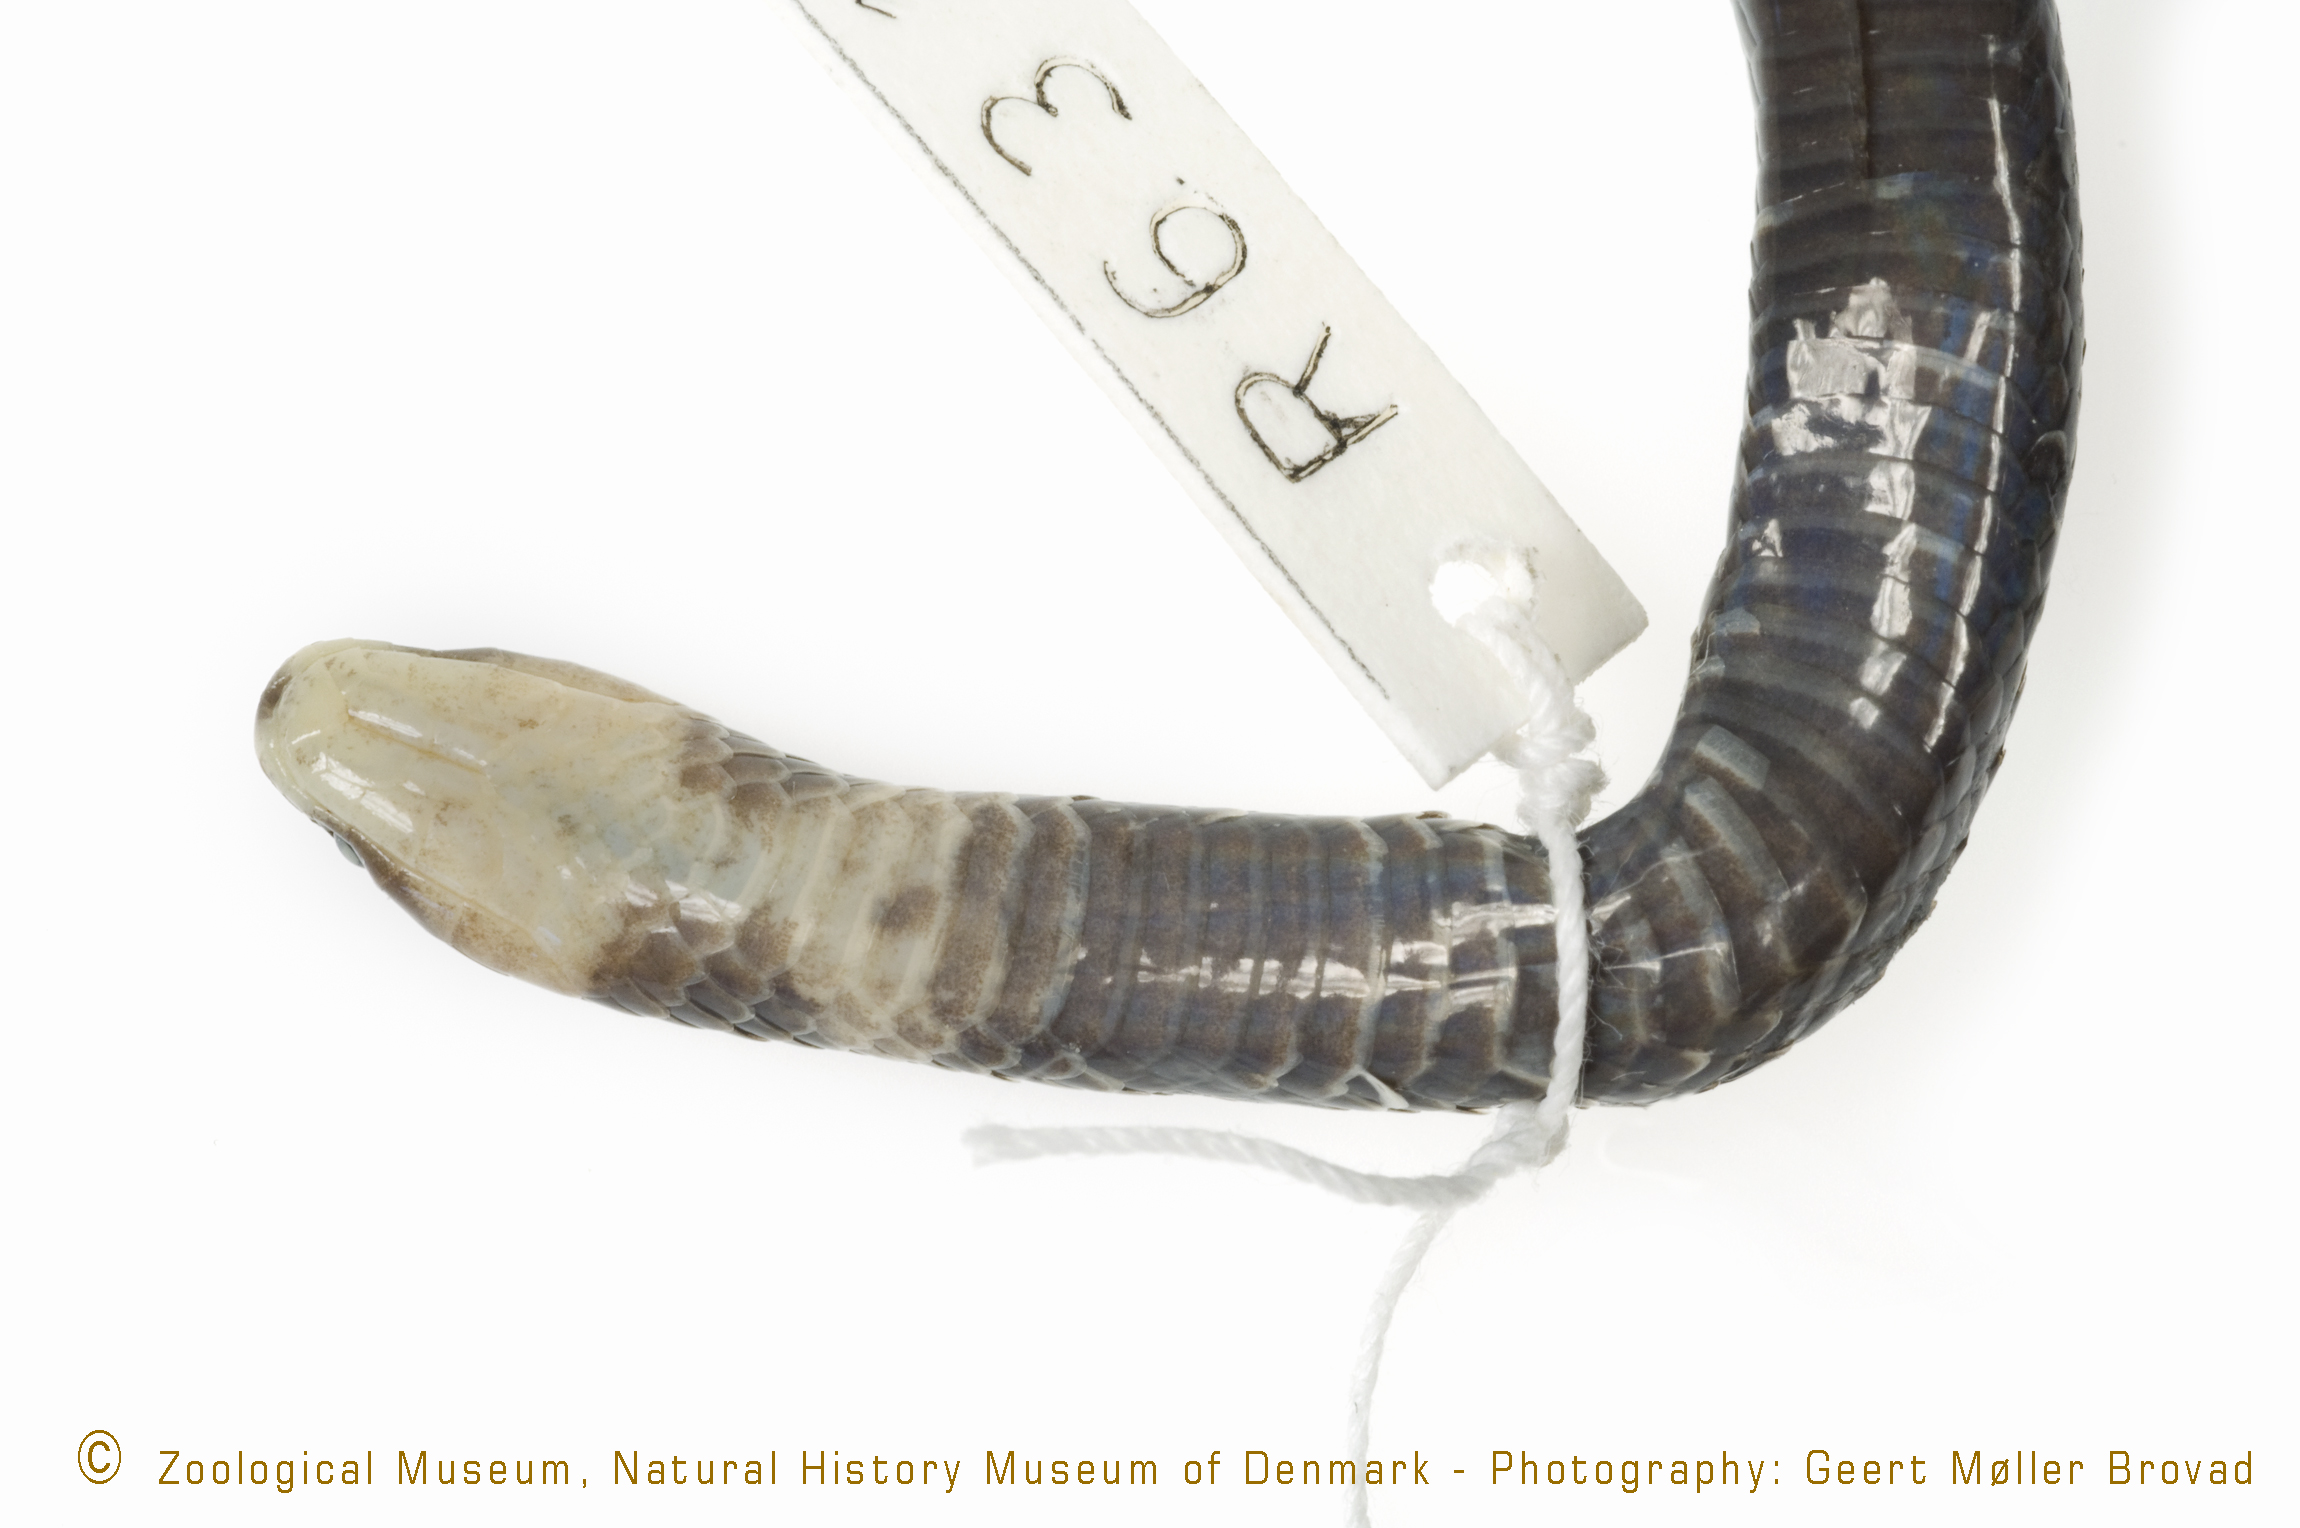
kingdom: Animalia
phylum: Chordata
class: Squamata
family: Atractaspididae
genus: Aparallactus
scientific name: Aparallactus guentheri
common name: Black centipede eater
